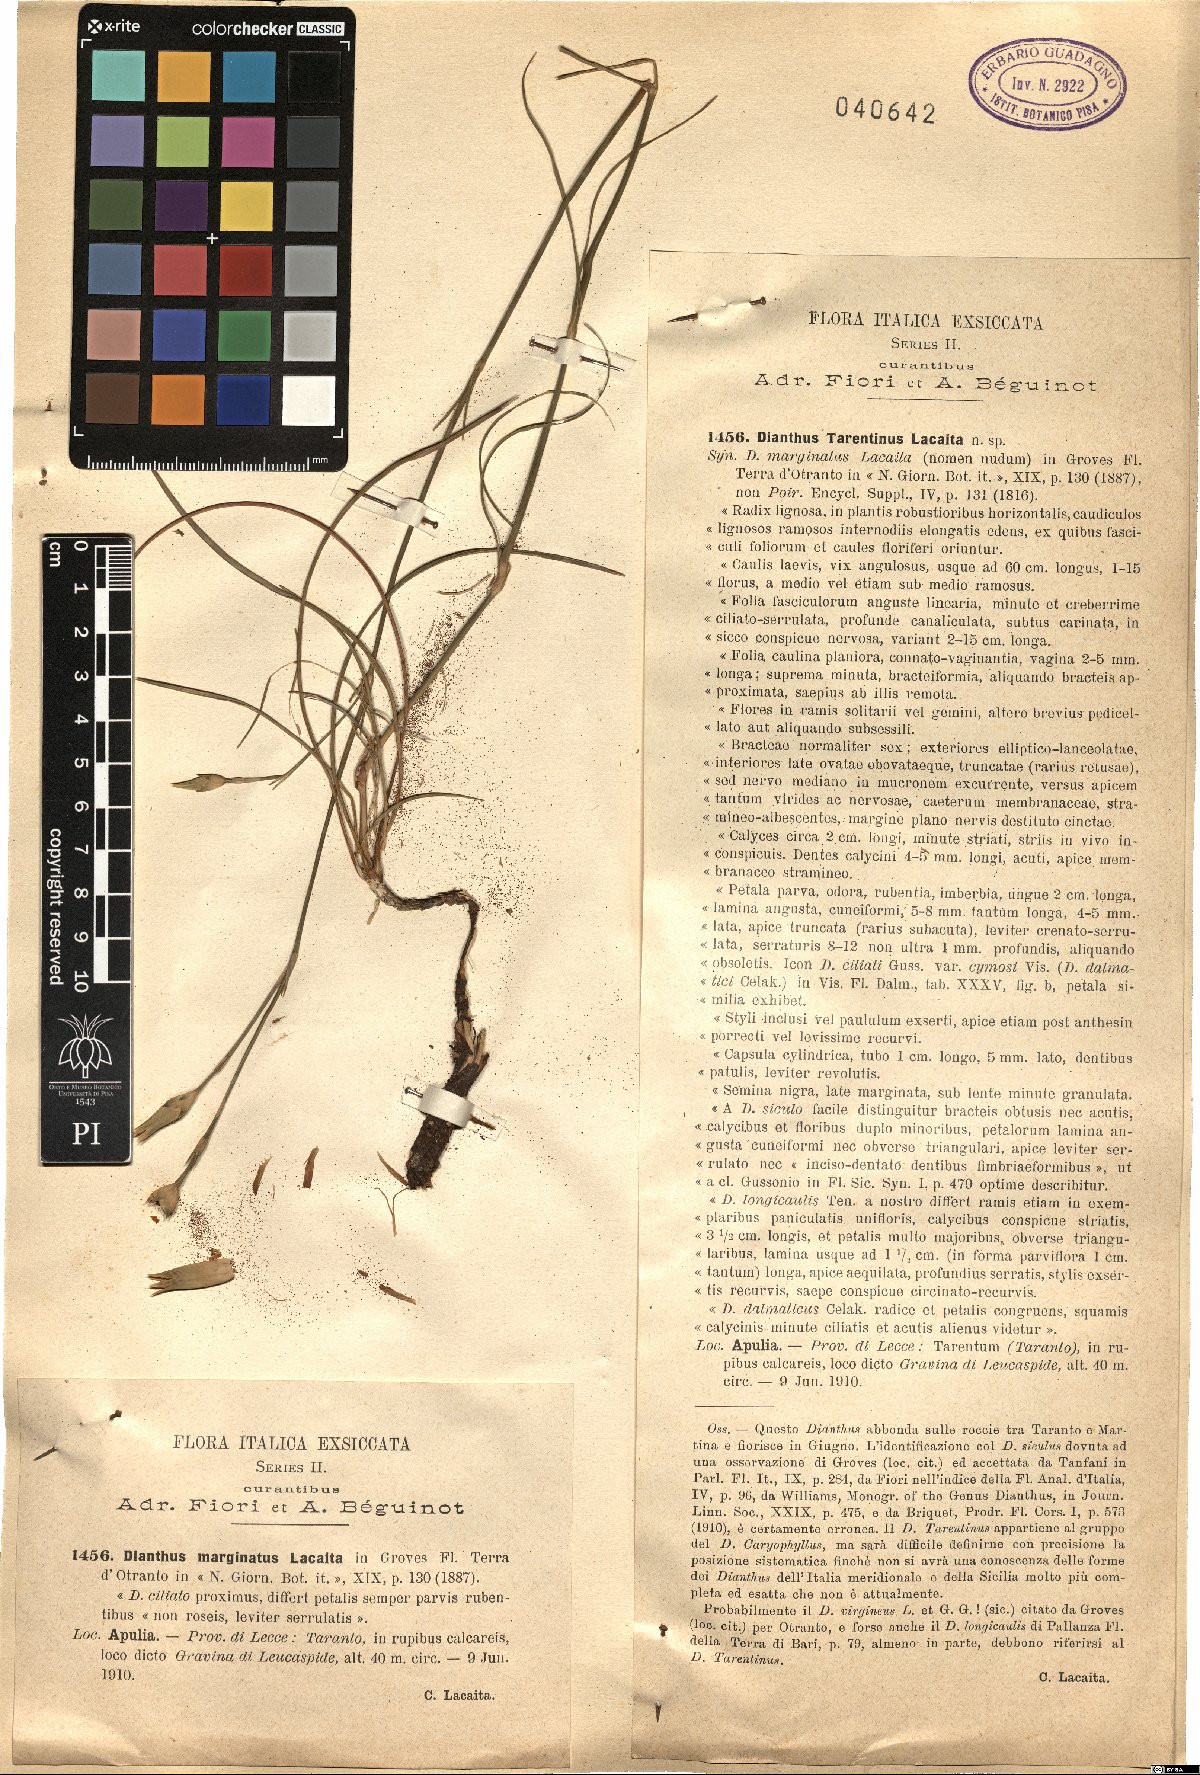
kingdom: Plantae
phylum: Tracheophyta
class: Magnoliopsida
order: Caryophyllales
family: Caryophyllaceae
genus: Dianthus
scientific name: Dianthus tarentinus
